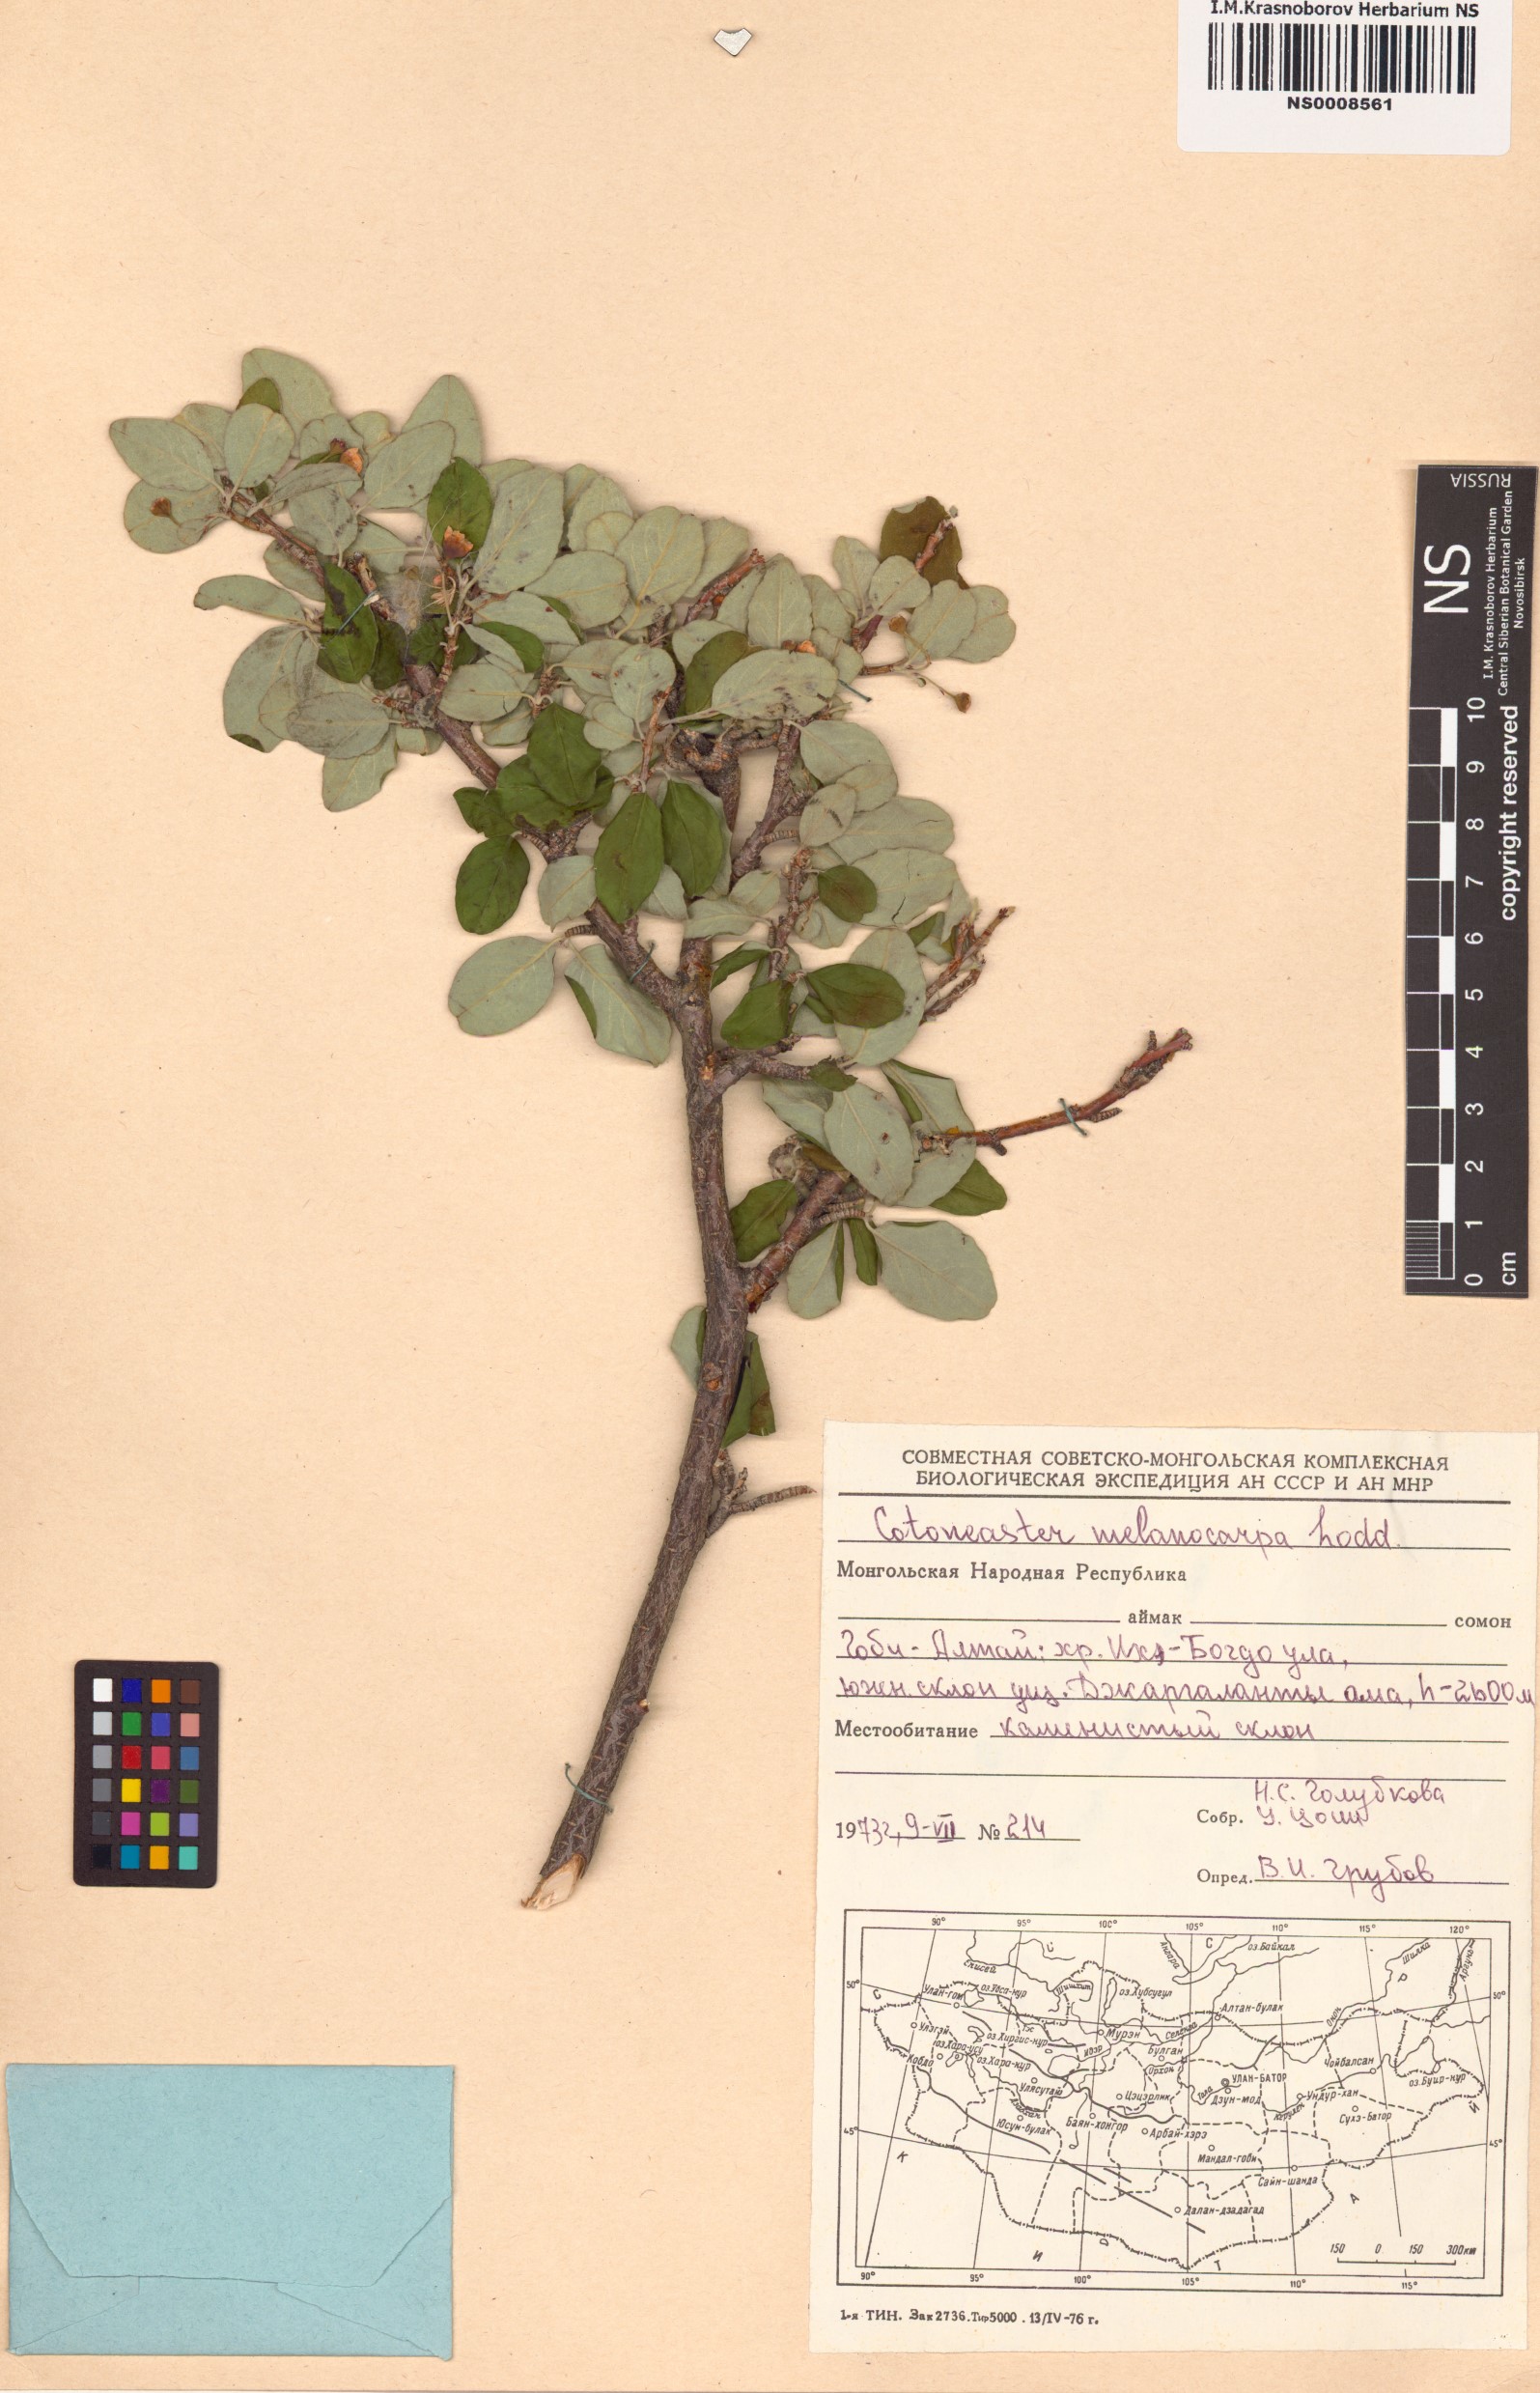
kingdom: Plantae
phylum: Tracheophyta
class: Magnoliopsida
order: Rosales
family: Rosaceae
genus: Cotoneaster
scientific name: Cotoneaster melanocarpus
